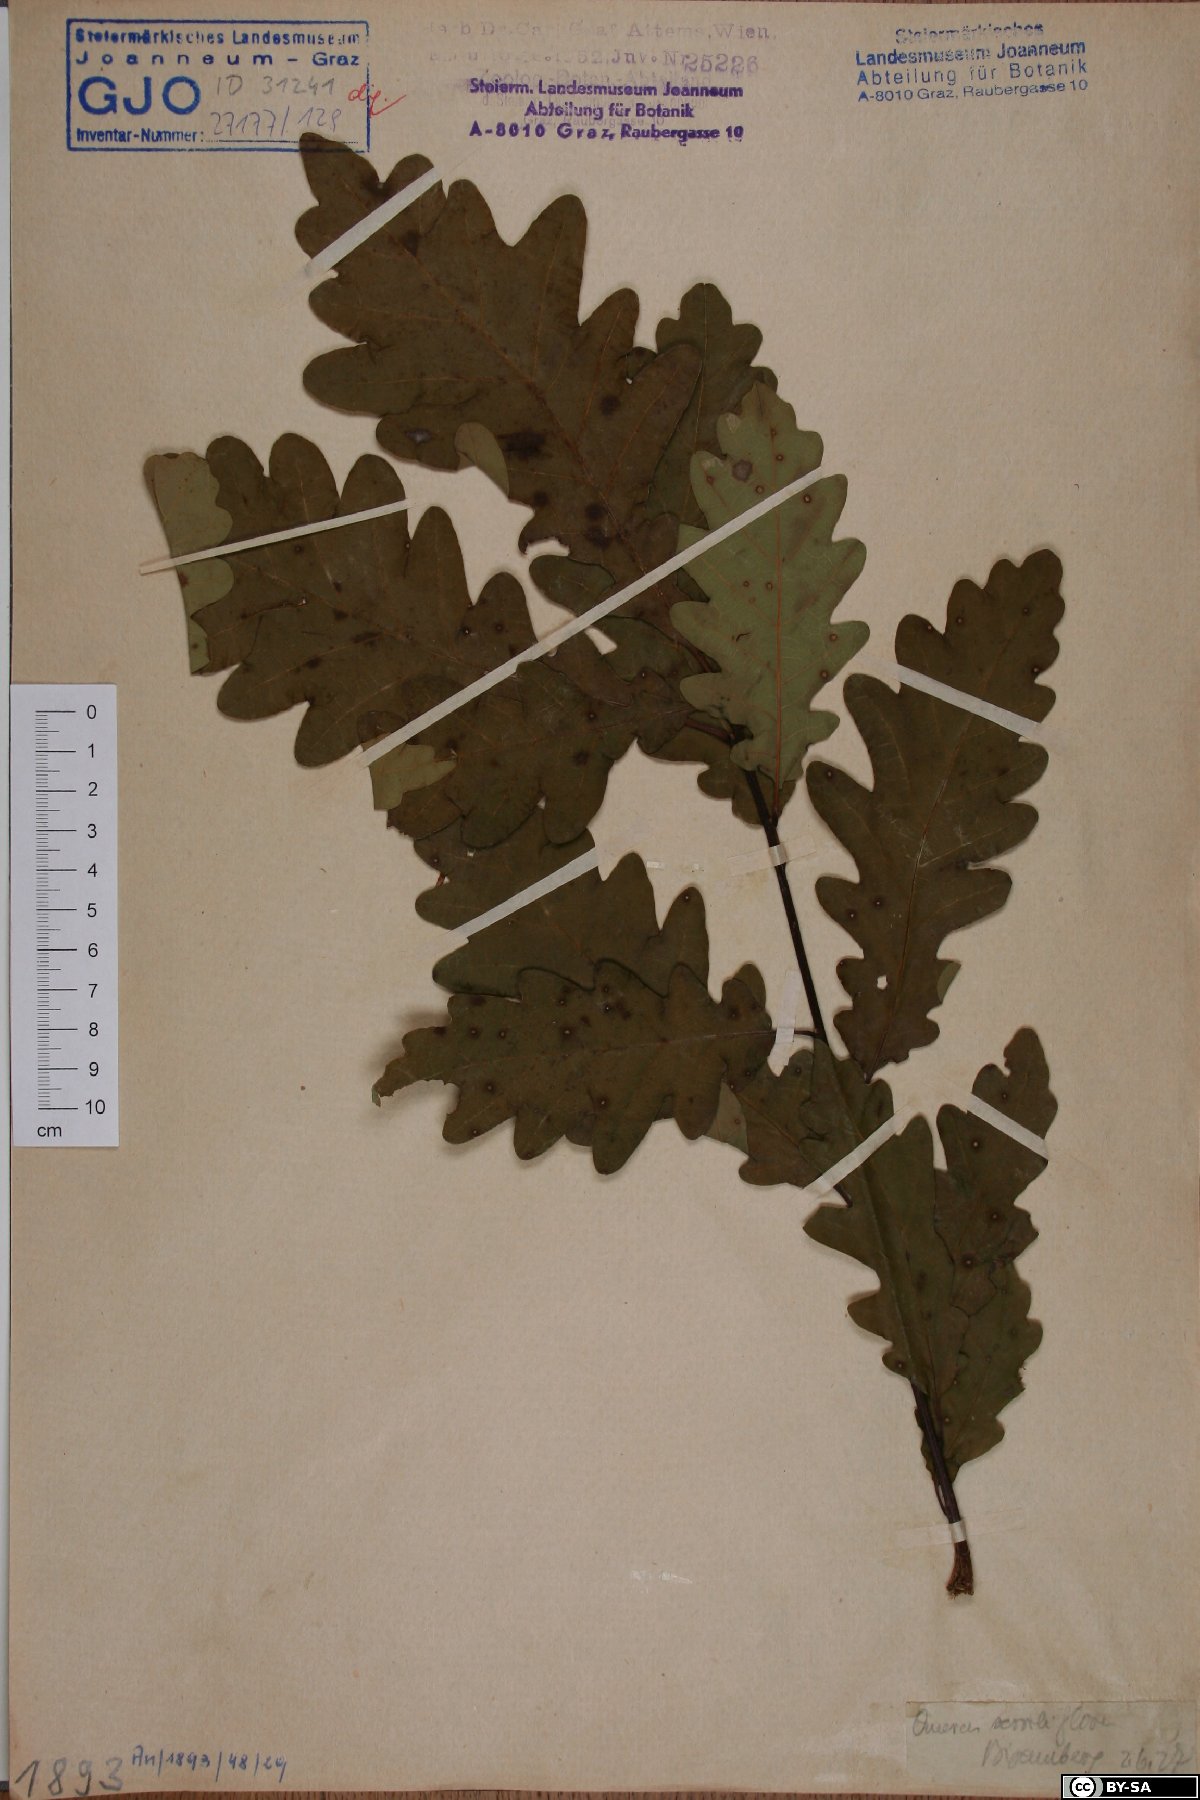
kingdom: Plantae
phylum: Tracheophyta
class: Magnoliopsida
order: Fagales
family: Fagaceae
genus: Quercus
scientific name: Quercus petraea
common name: Sessile oak
